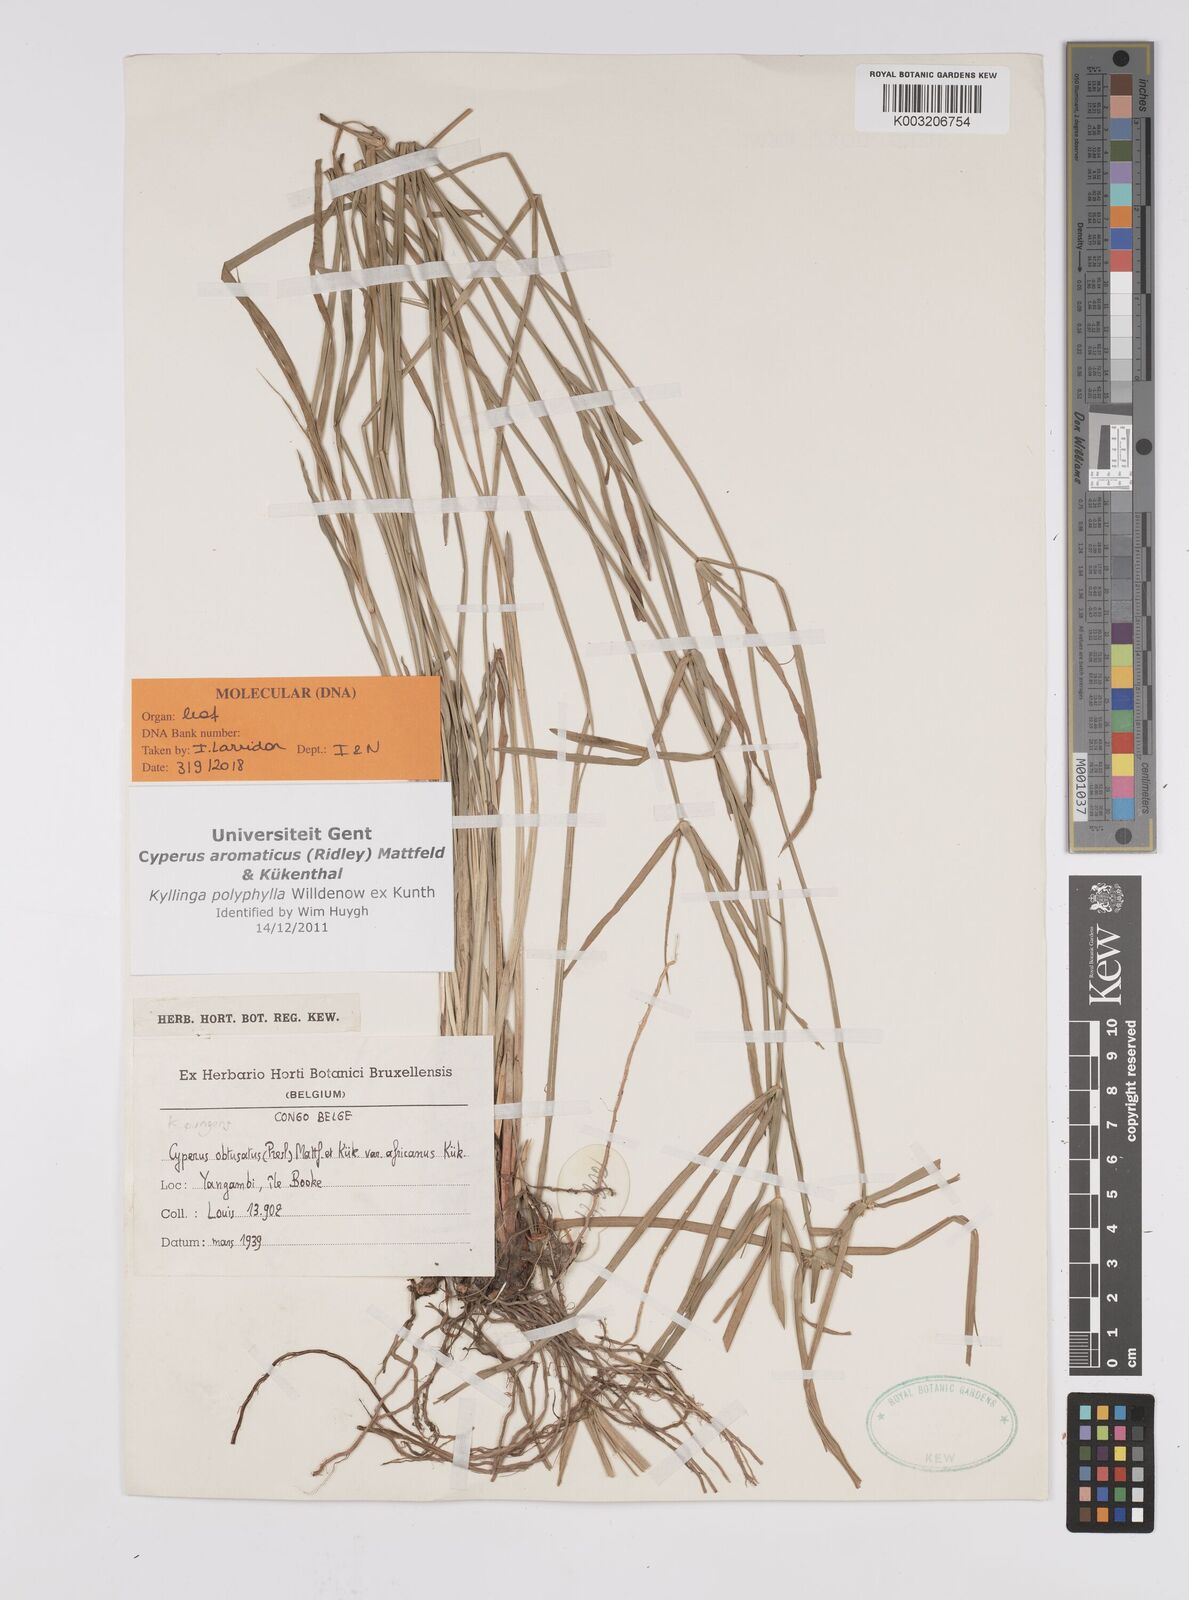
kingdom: Plantae
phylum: Tracheophyta
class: Liliopsida
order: Poales
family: Cyperaceae
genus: Cyperus
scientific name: Cyperus
